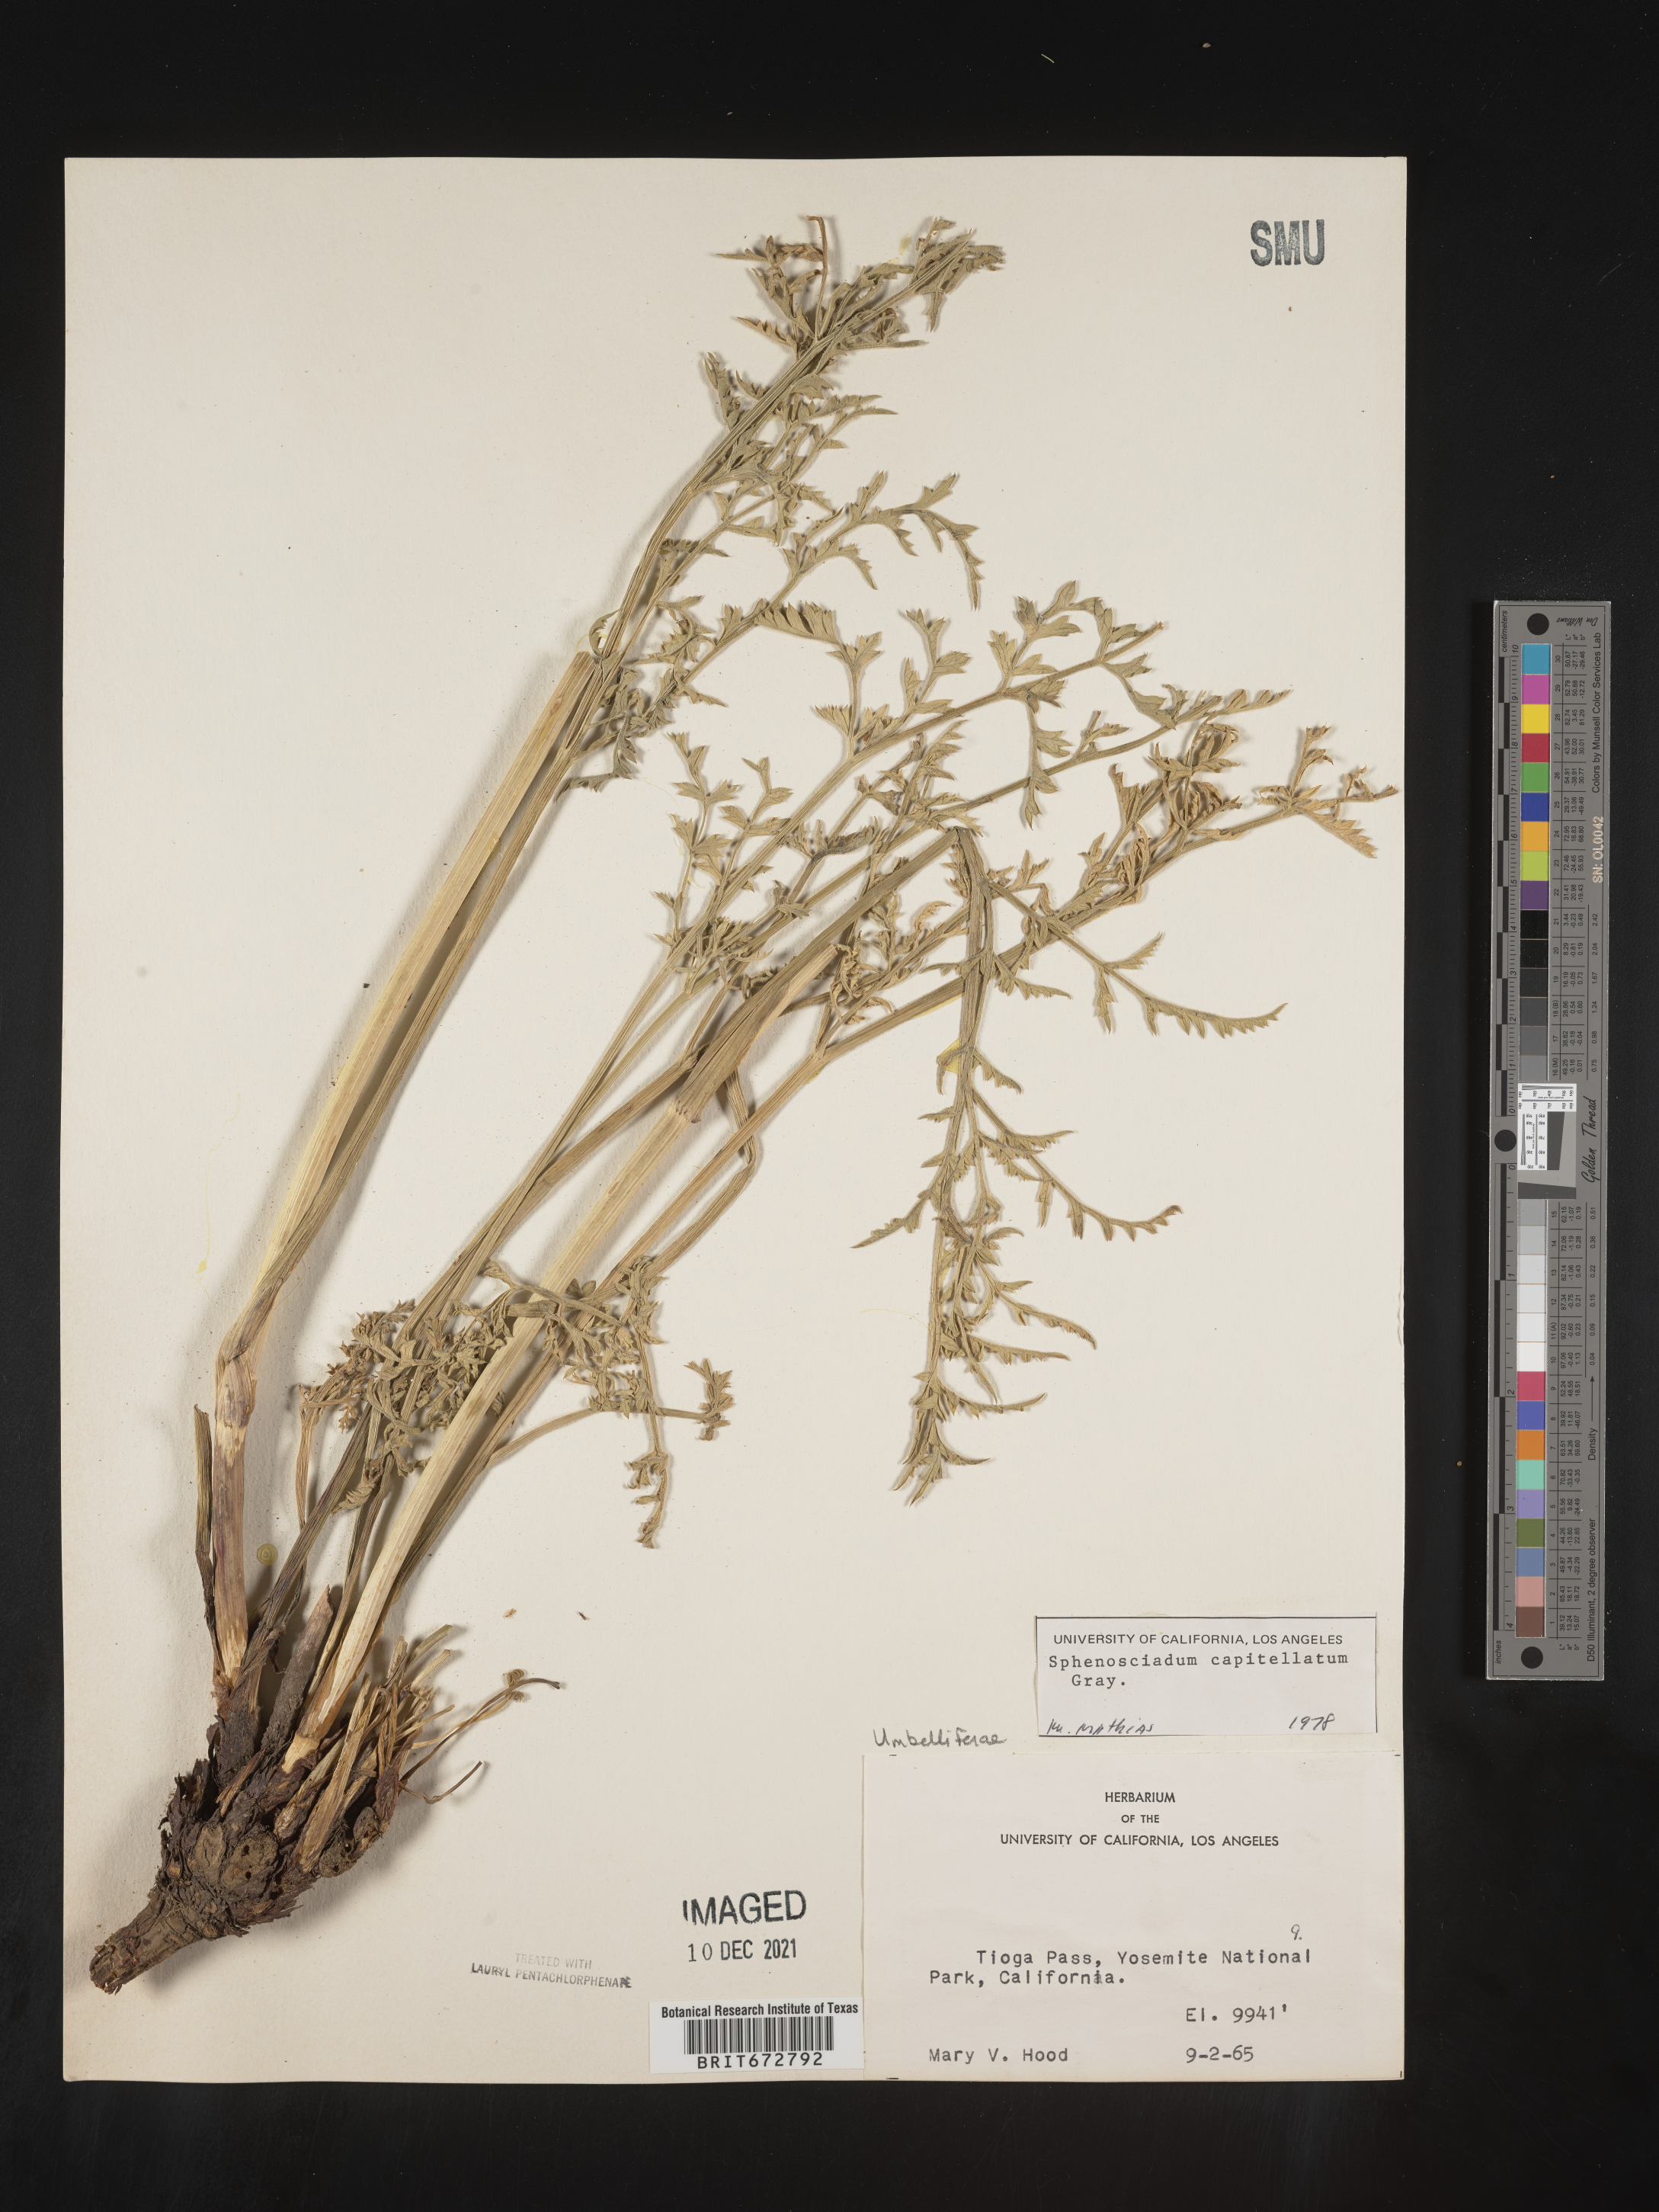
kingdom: Plantae
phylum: Tracheophyta
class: Magnoliopsida
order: Apiales
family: Apiaceae
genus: Angelica
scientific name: Angelica
